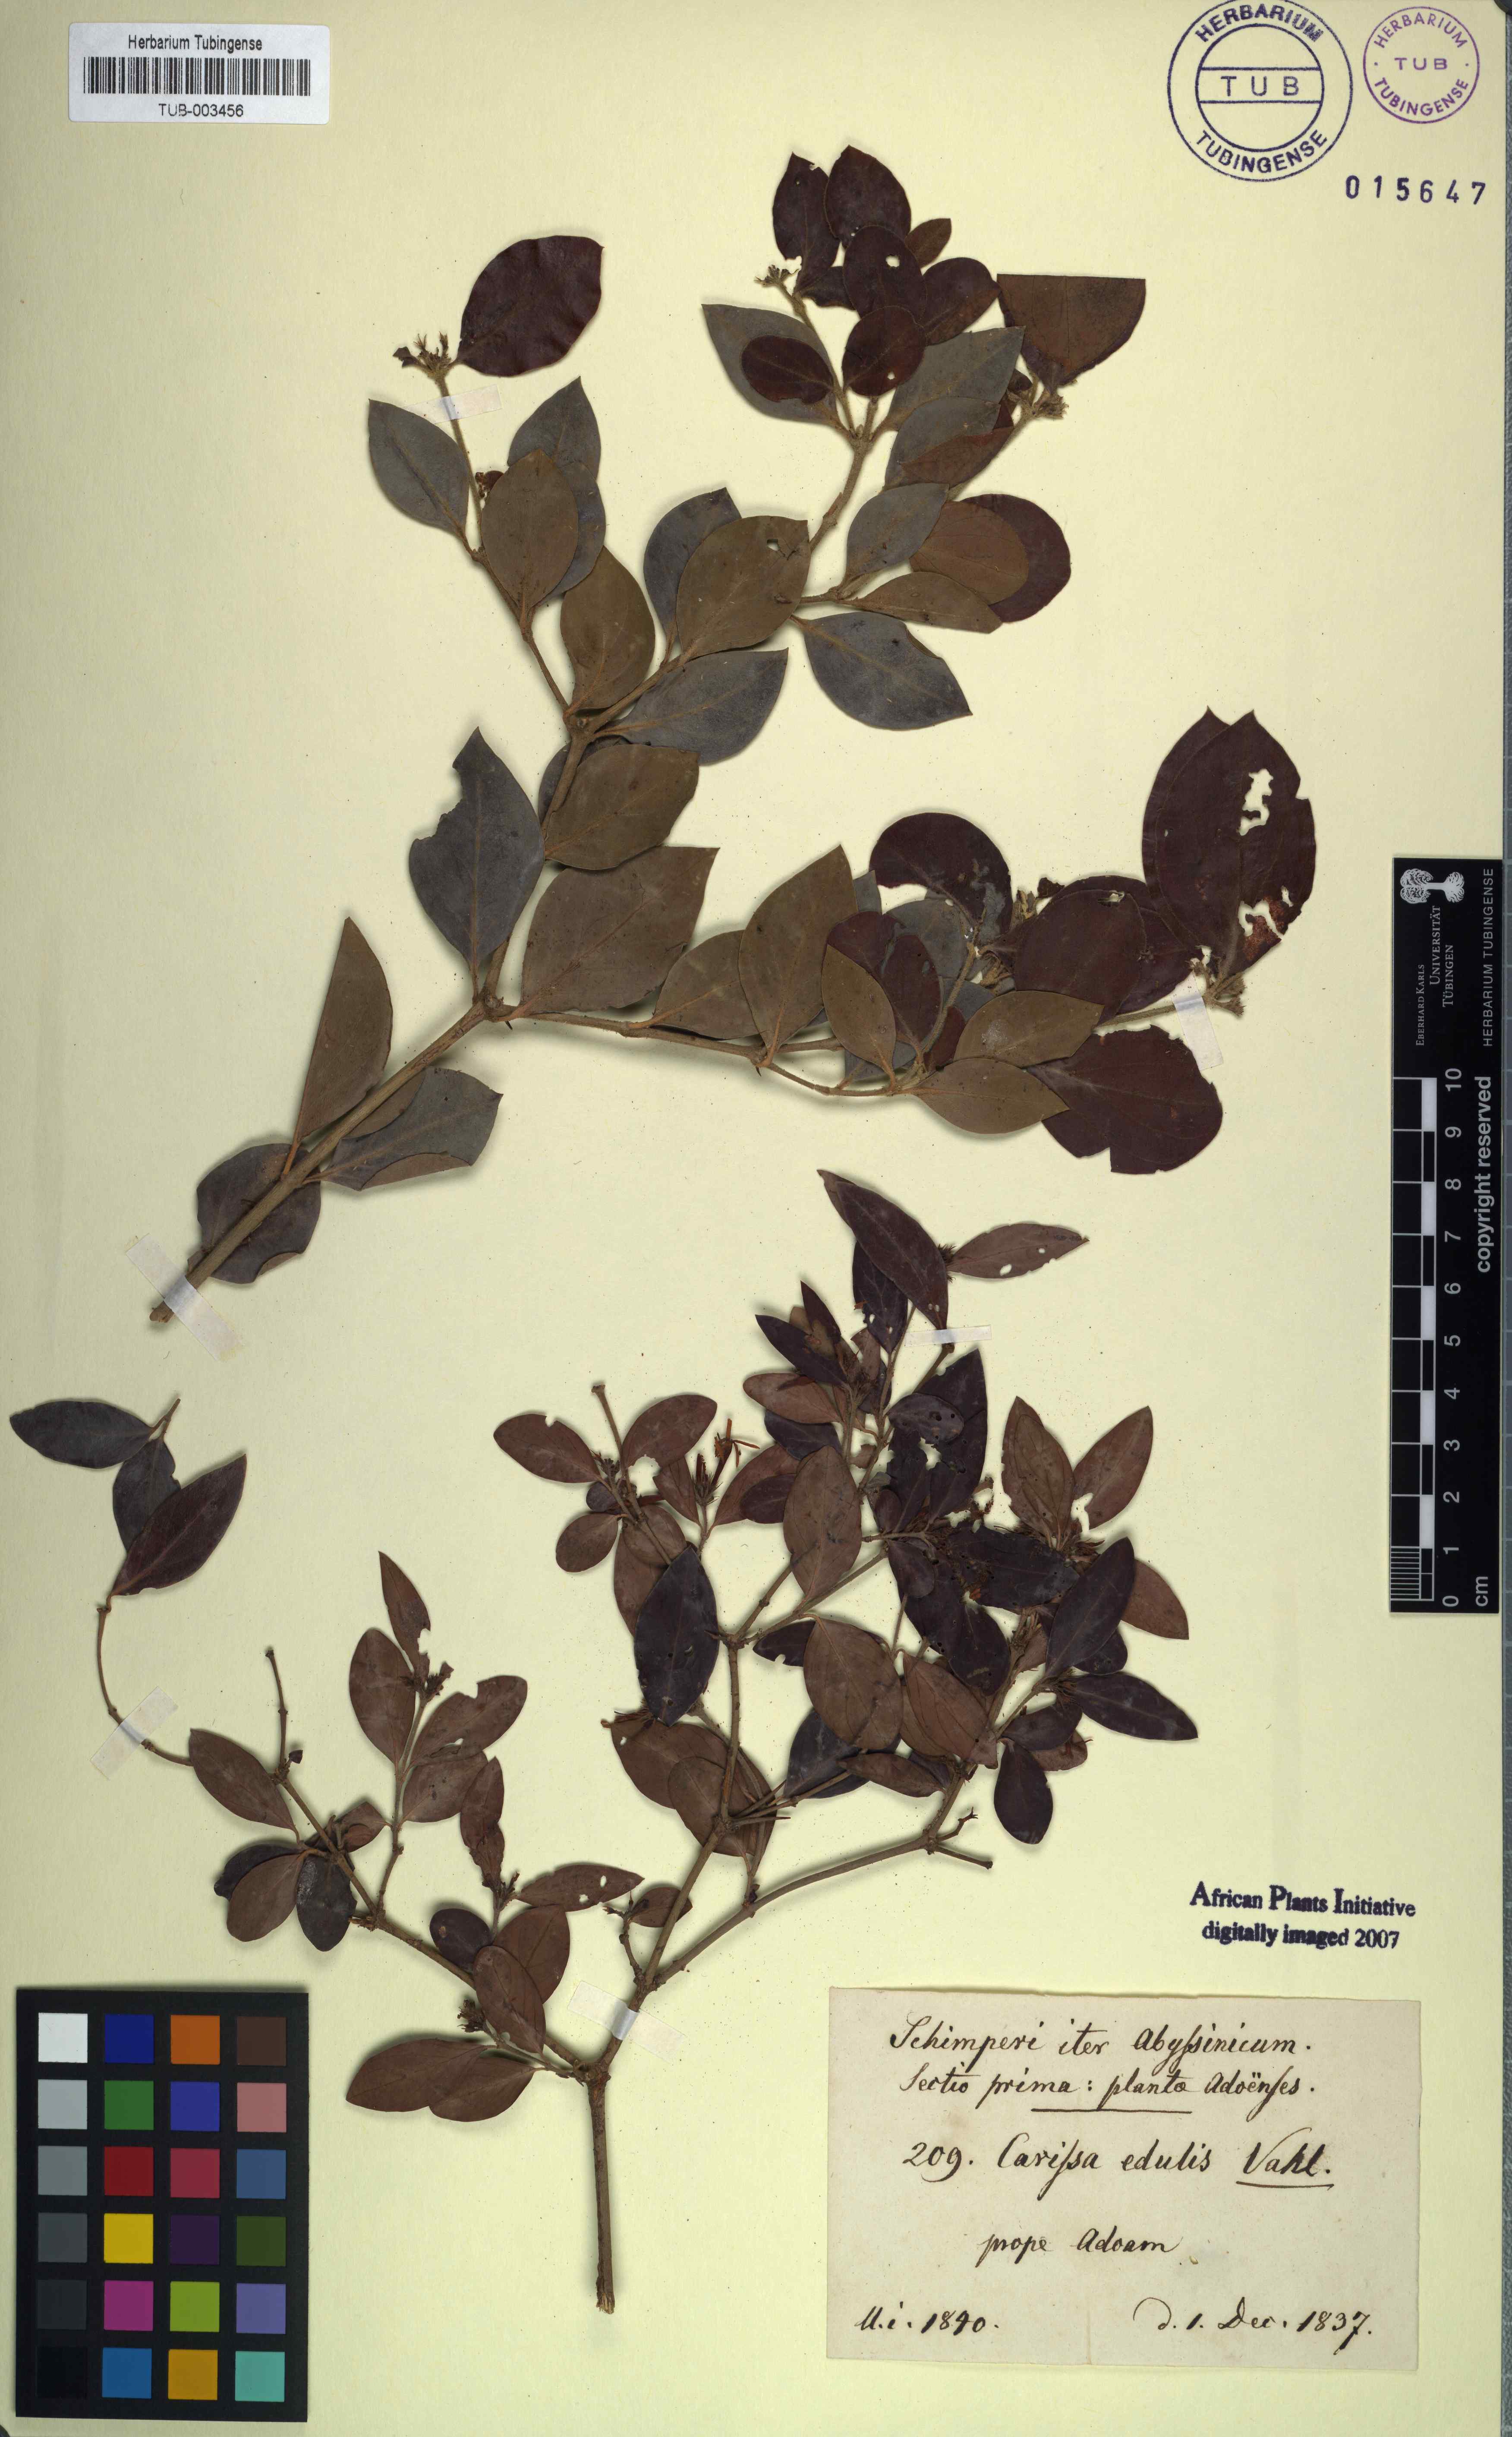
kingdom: Plantae
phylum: Tracheophyta
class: Magnoliopsida
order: Gentianales
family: Apocynaceae
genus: Carissa
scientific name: Carissa spinarum
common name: Egyptian carissa
